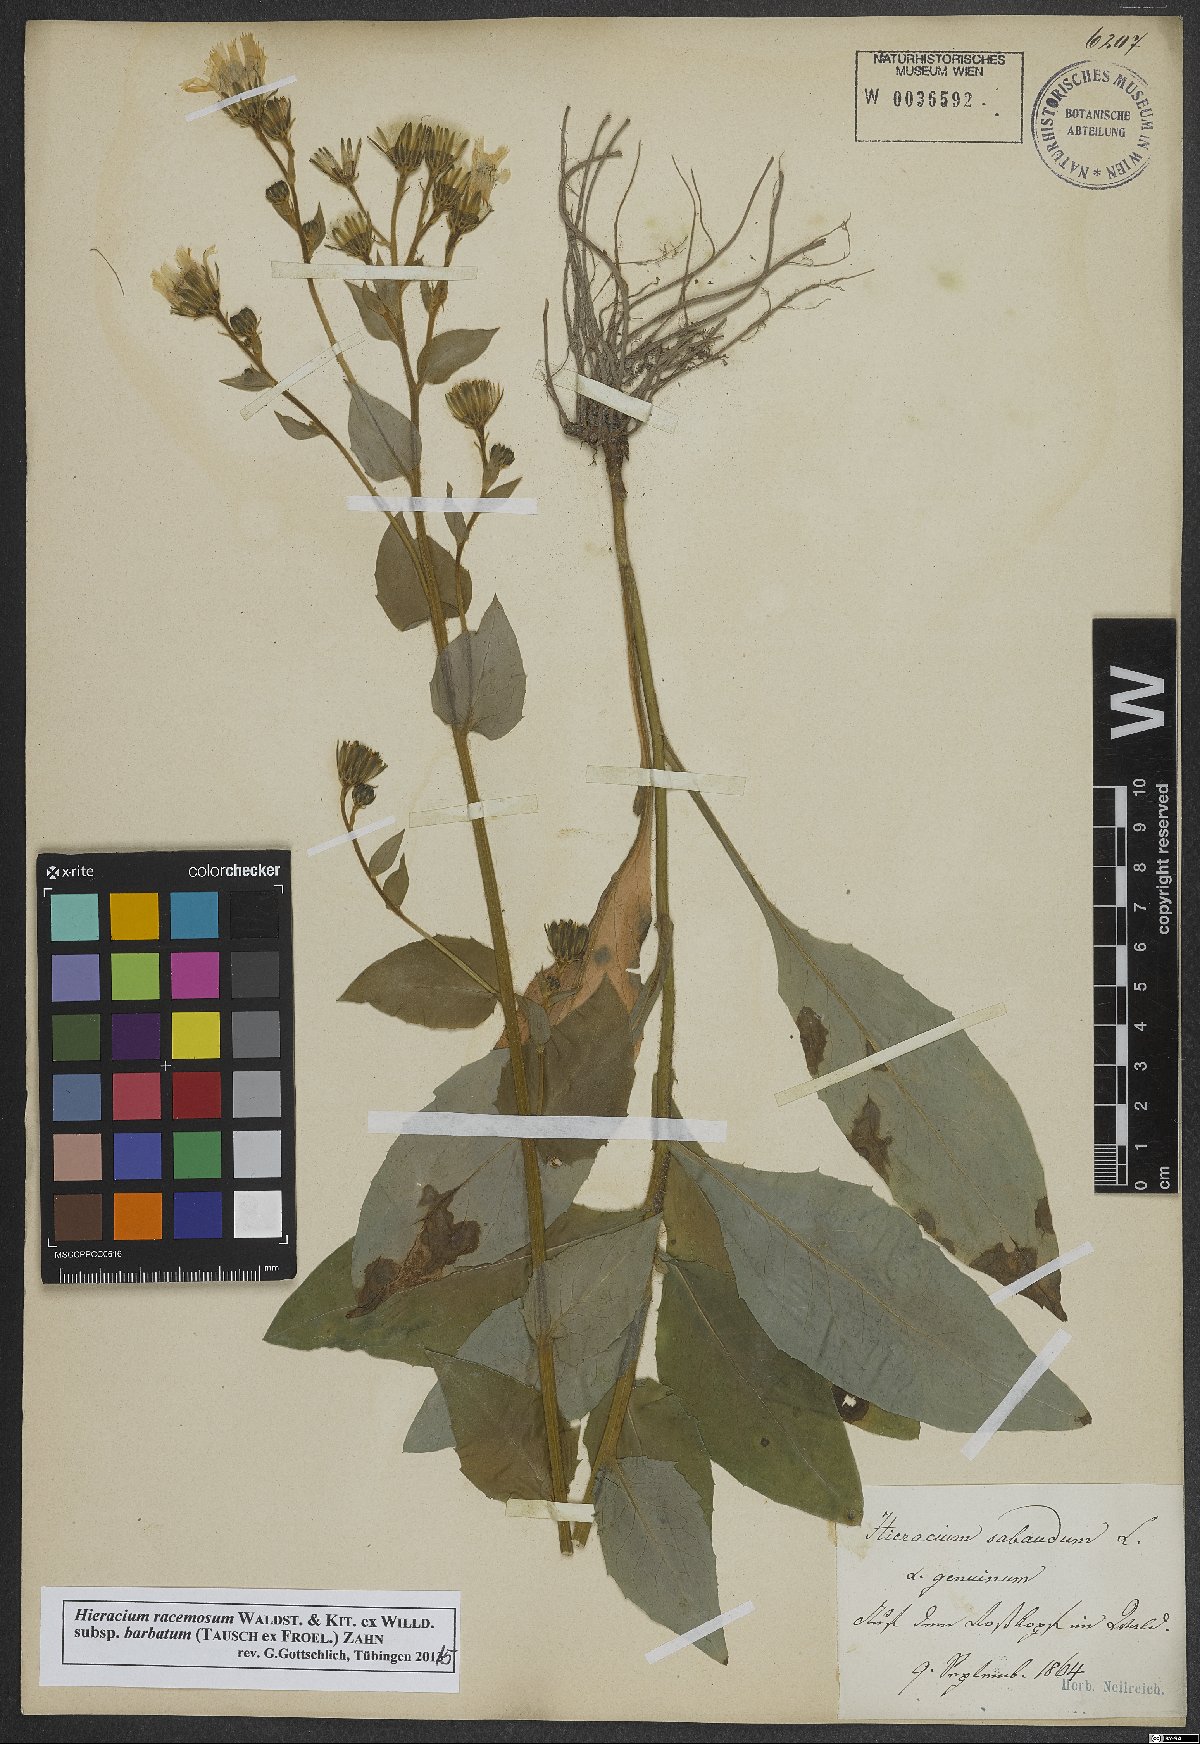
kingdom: Plantae
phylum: Tracheophyta
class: Magnoliopsida
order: Asterales
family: Asteraceae
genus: Hieracium
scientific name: Hieracium racemosum
